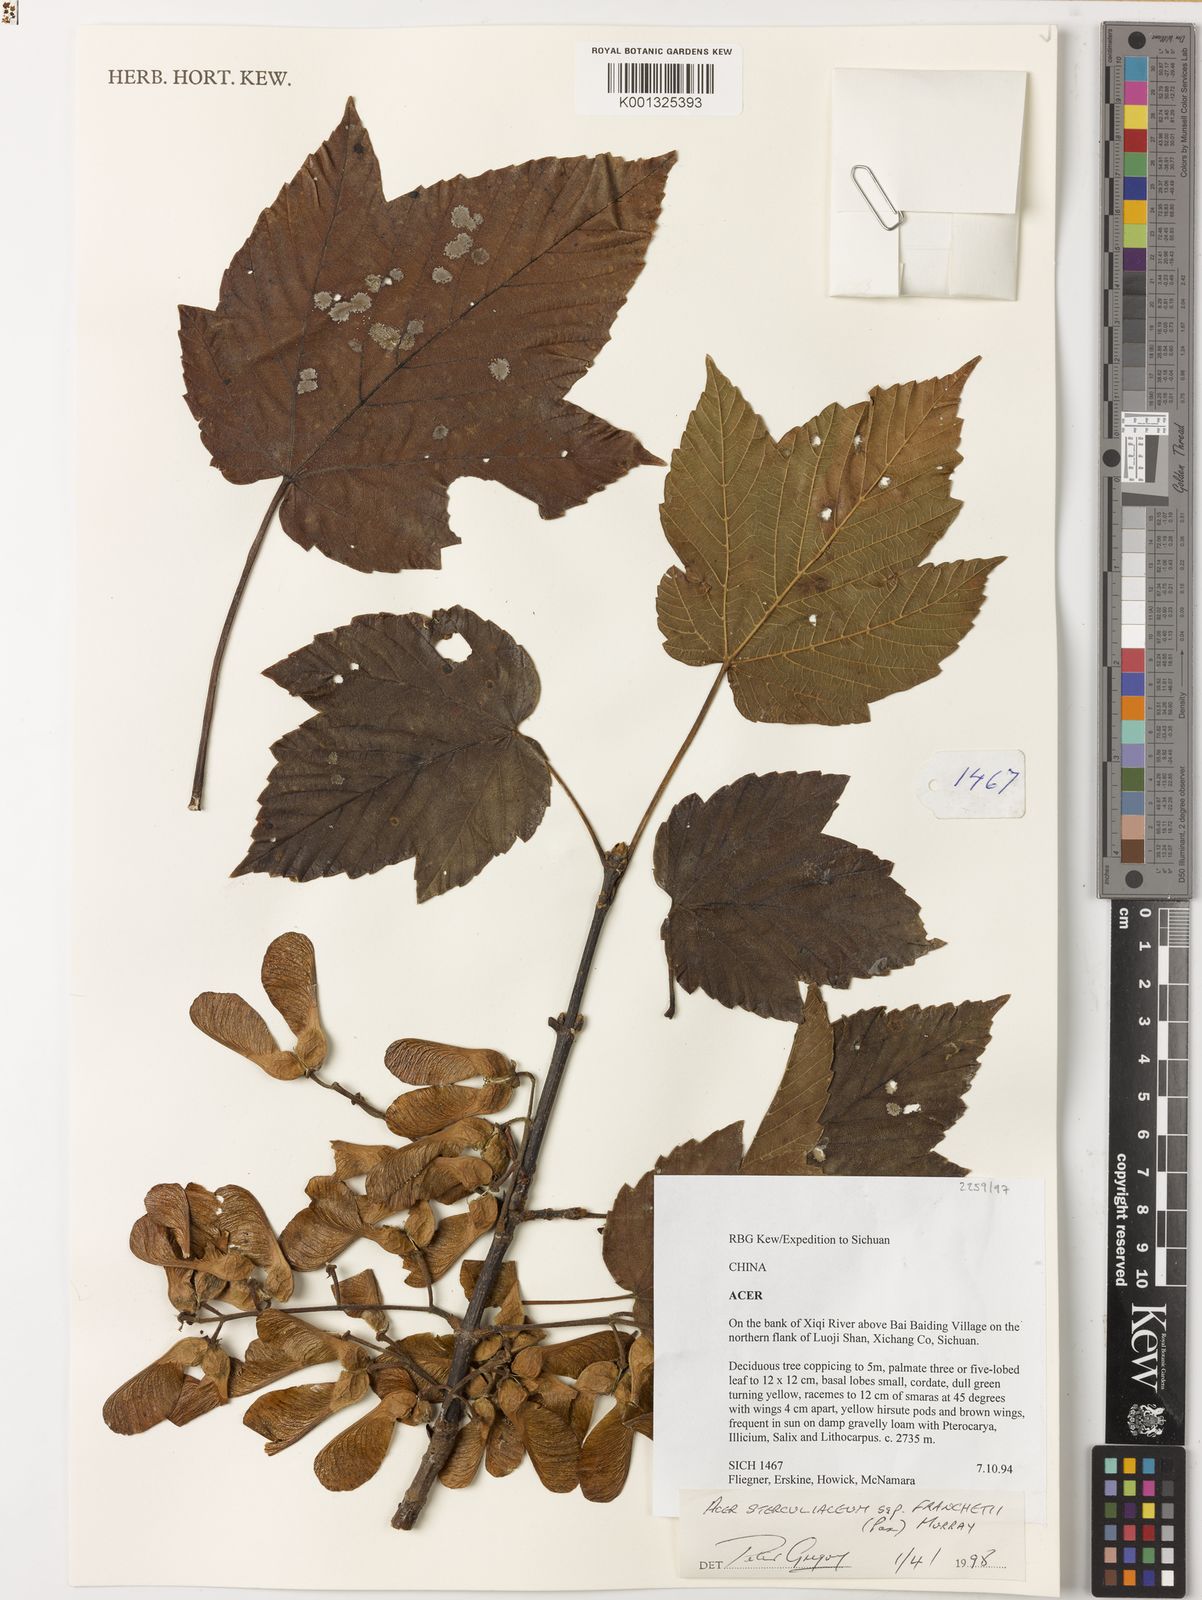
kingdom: Plantae
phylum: Tracheophyta
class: Magnoliopsida
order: Sapindales
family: Sapindaceae
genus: Acer
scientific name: Acer sterculiaceum
